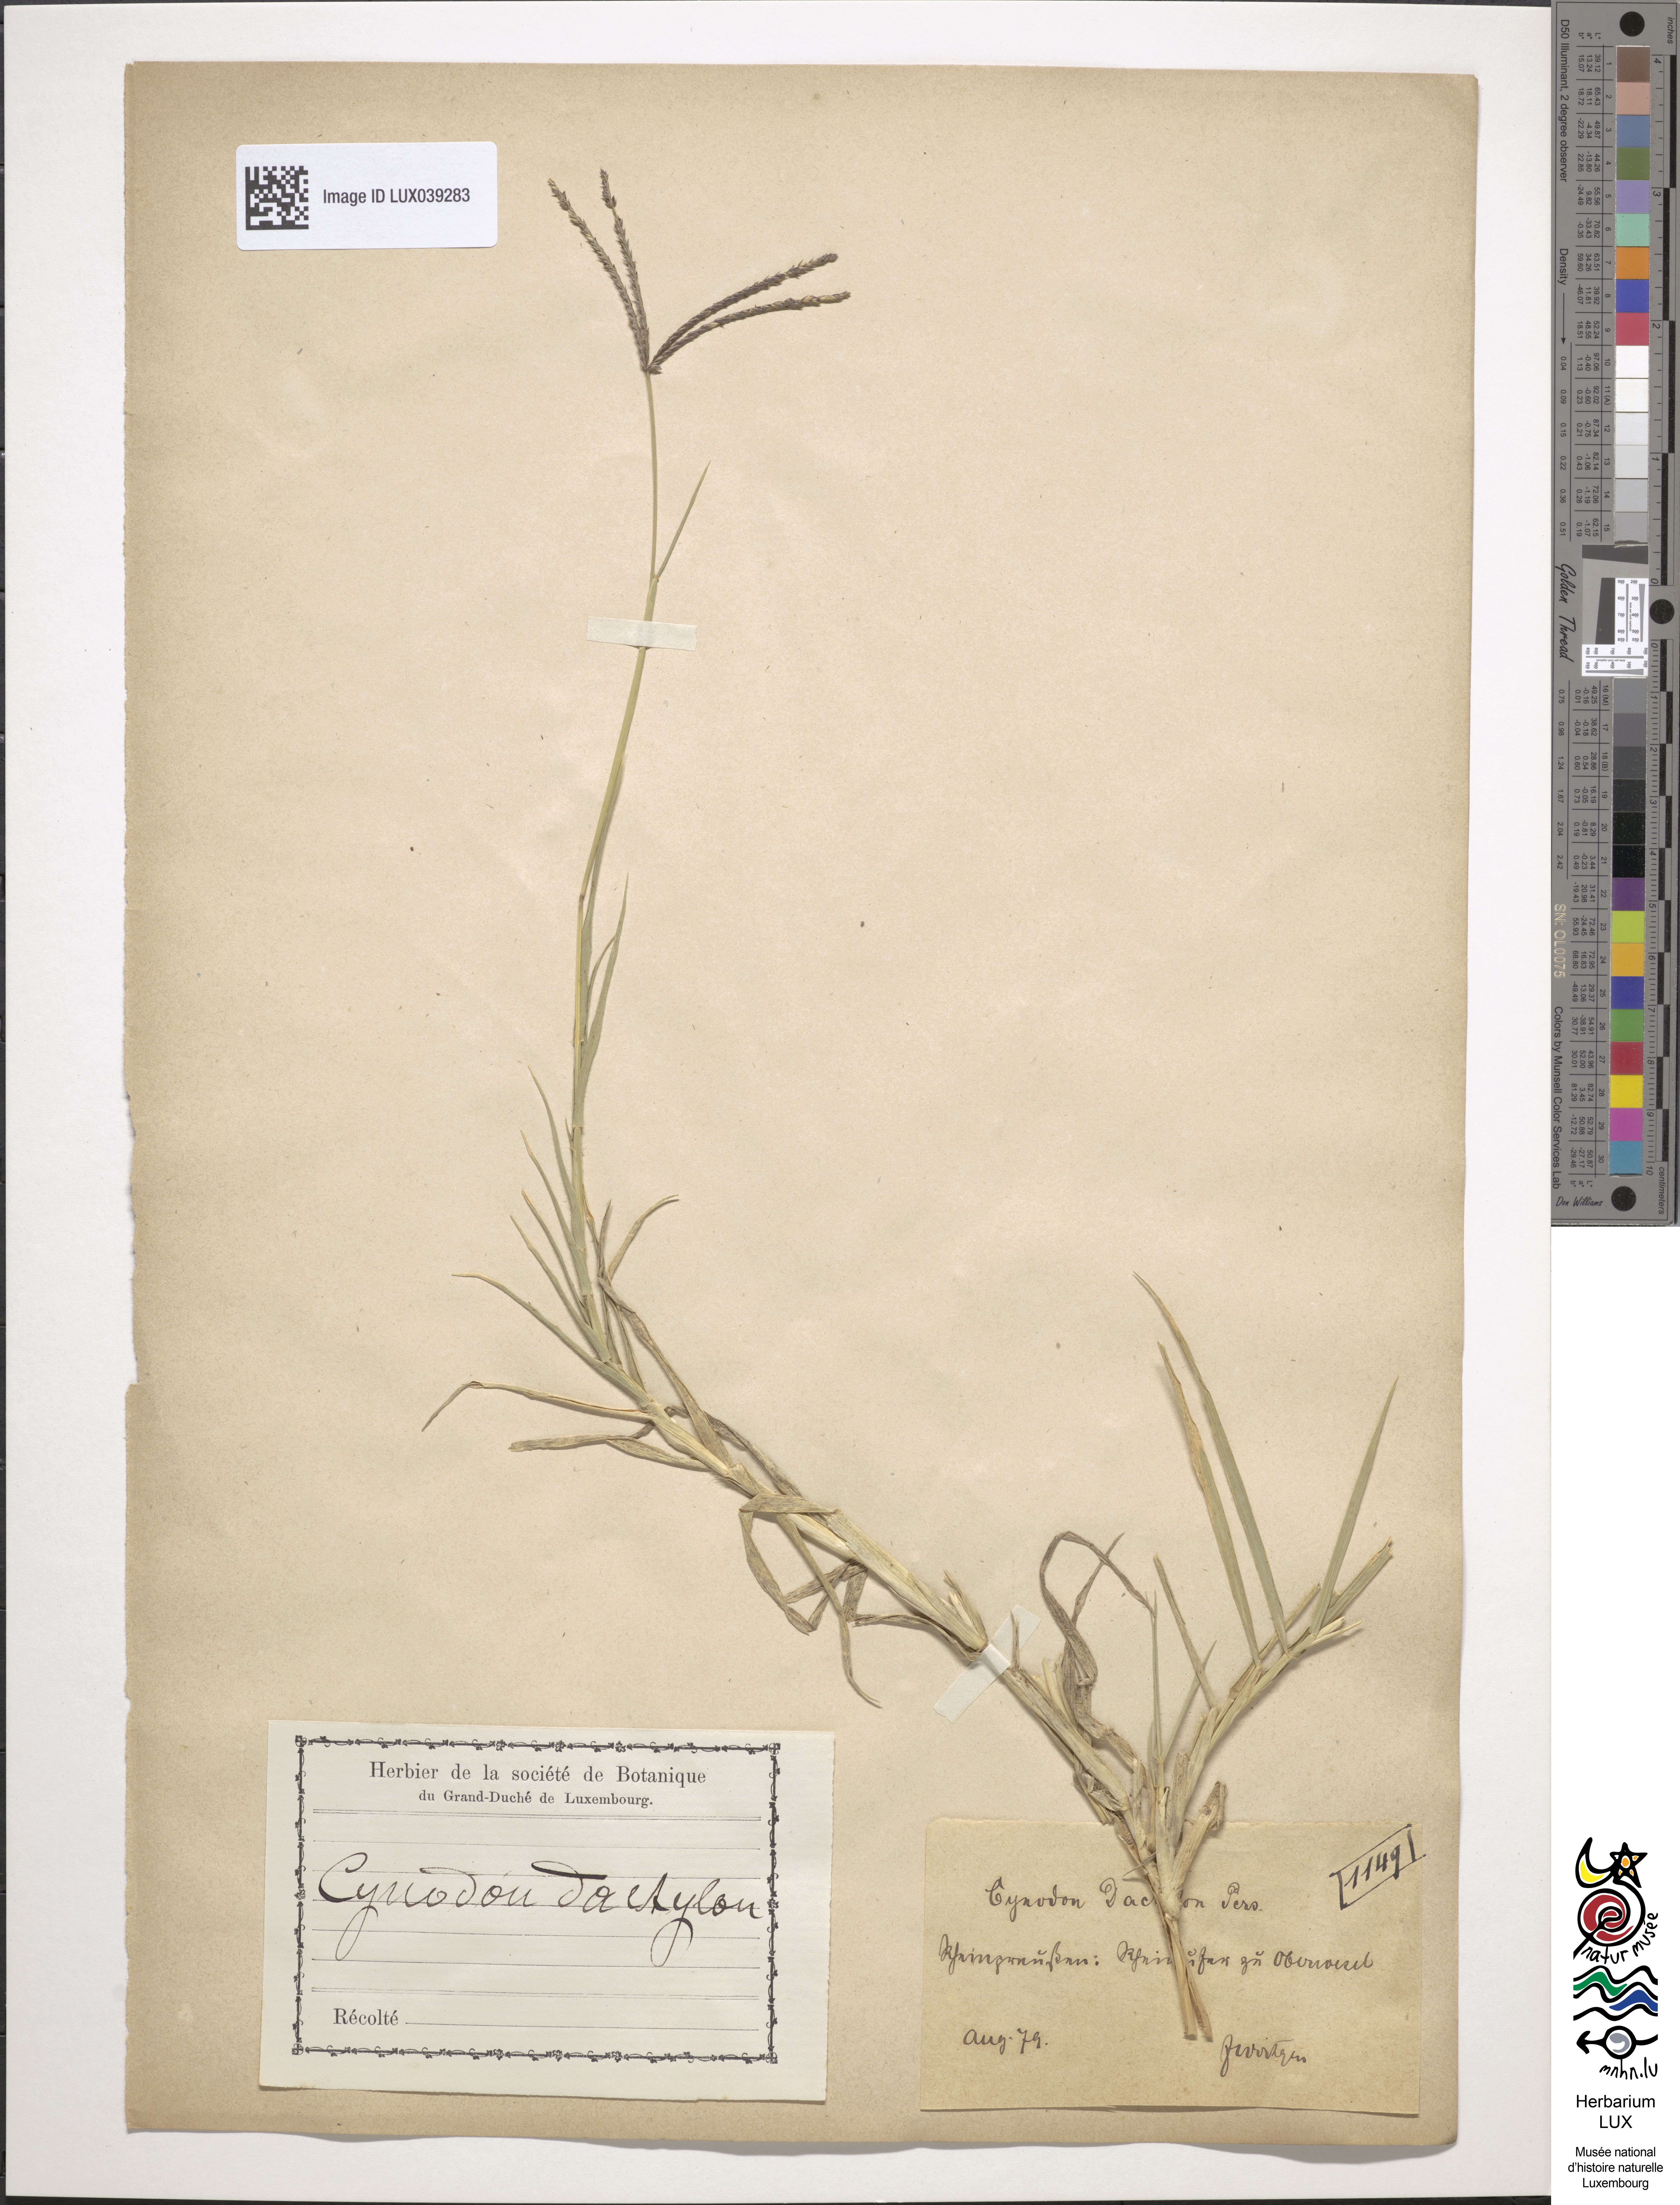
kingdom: Plantae
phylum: Tracheophyta
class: Liliopsida
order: Poales
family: Poaceae
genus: Cynodon
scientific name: Cynodon dactylon
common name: Bermuda grass
